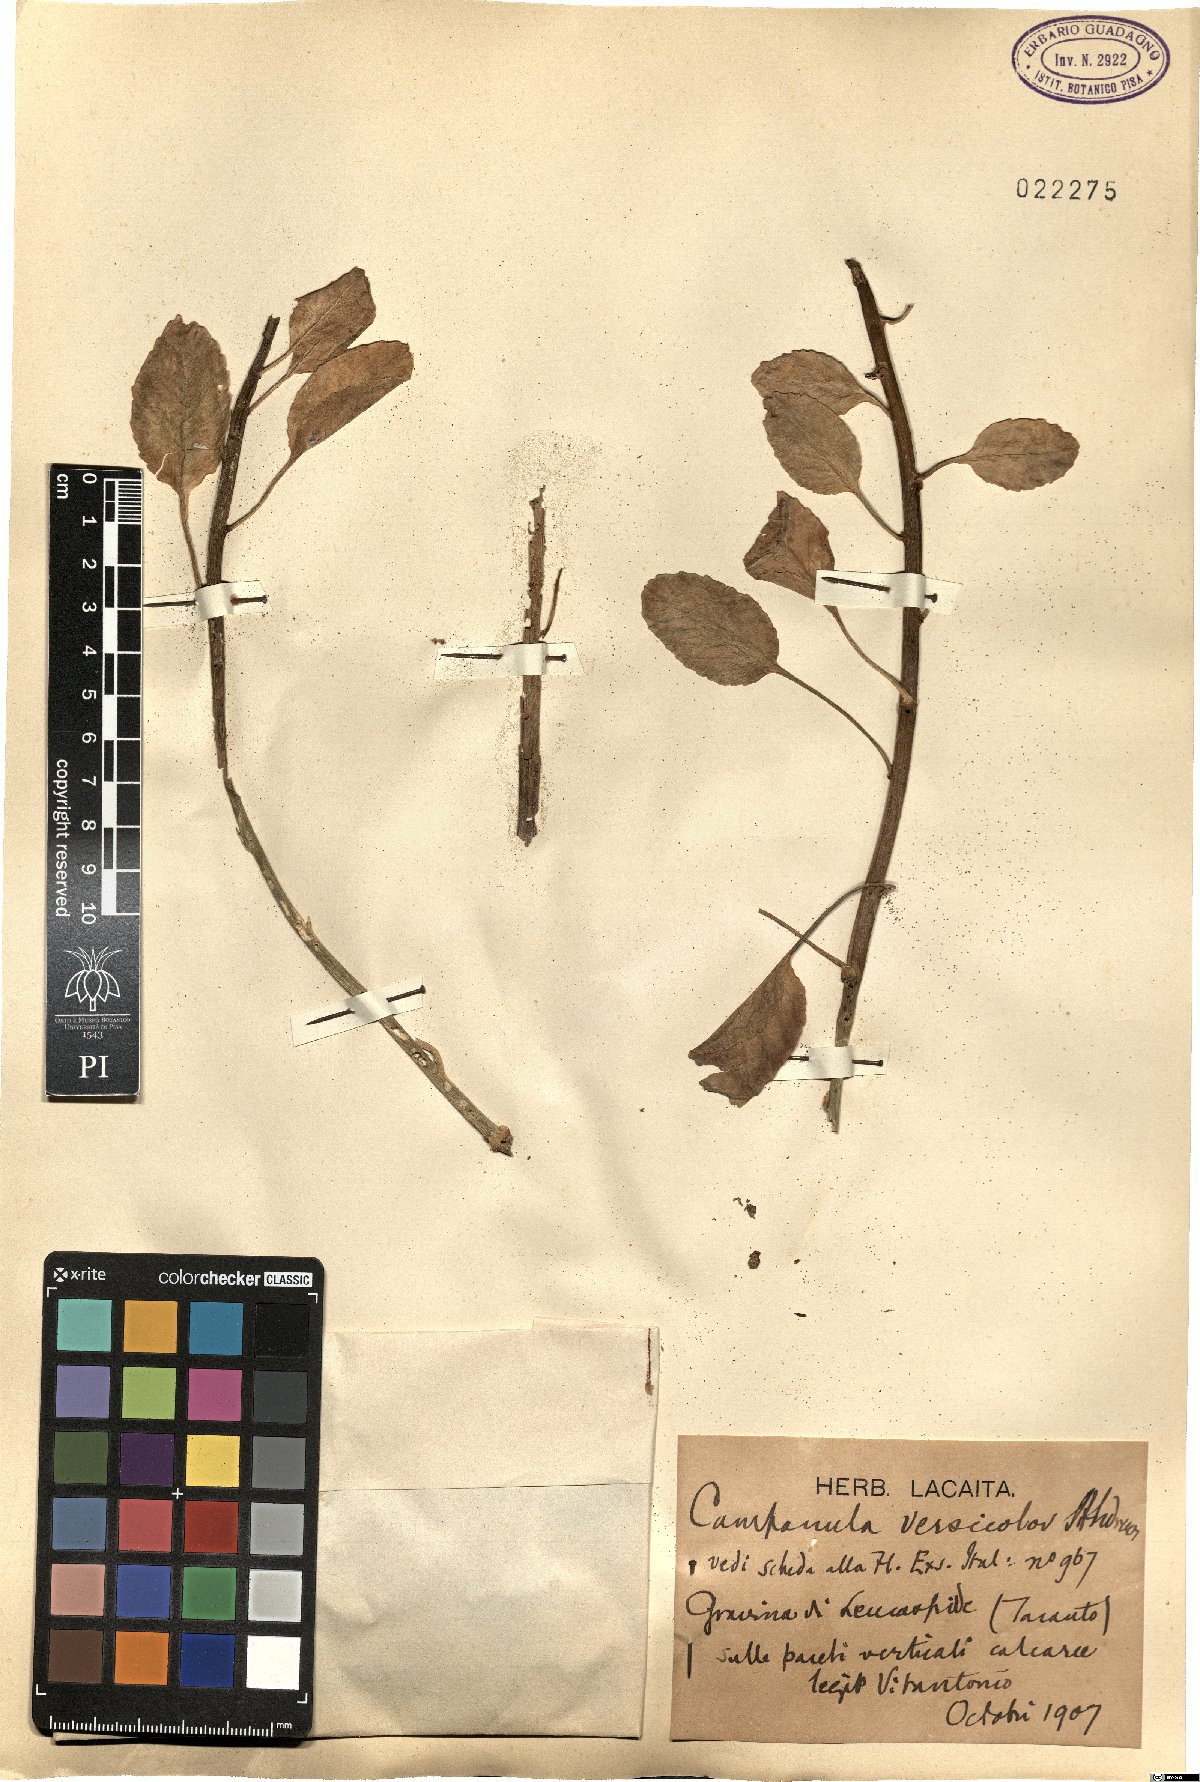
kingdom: Plantae
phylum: Tracheophyta
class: Magnoliopsida
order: Asterales
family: Campanulaceae
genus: Campanula
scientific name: Campanula versicolor
